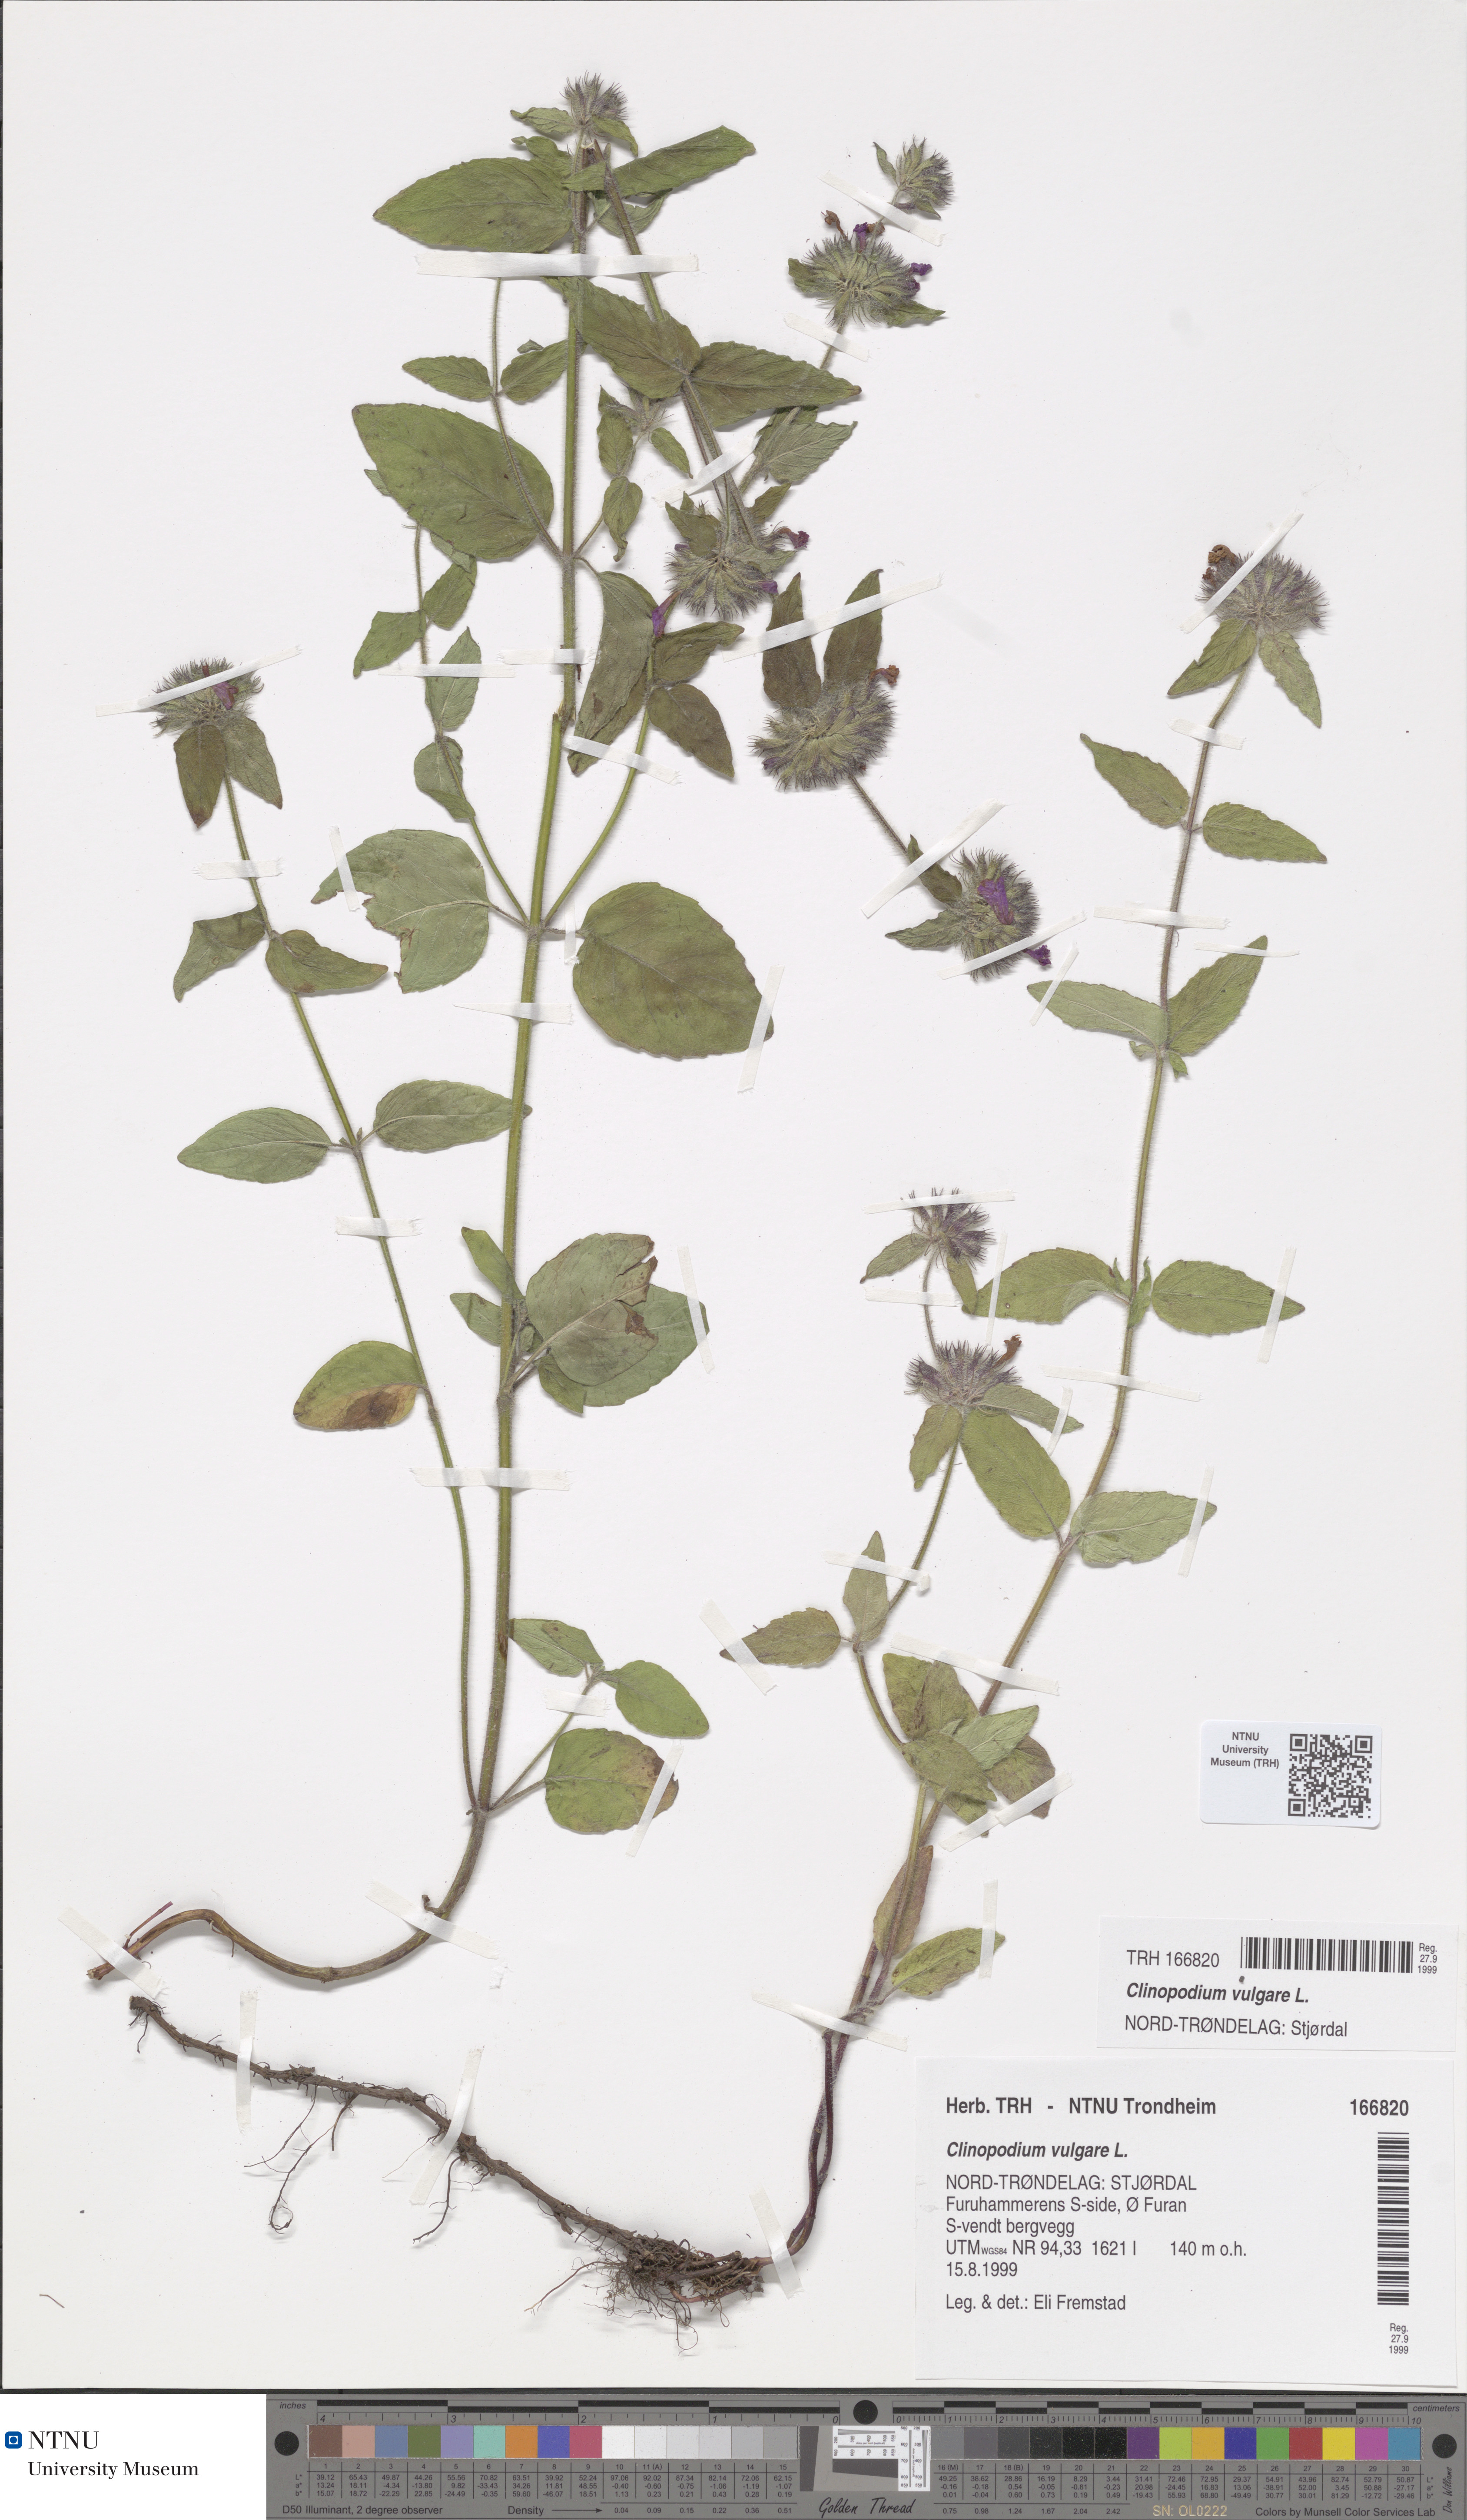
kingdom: Plantae
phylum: Tracheophyta
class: Magnoliopsida
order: Lamiales
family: Lamiaceae
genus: Clinopodium
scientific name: Clinopodium vulgare
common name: Wild basil
